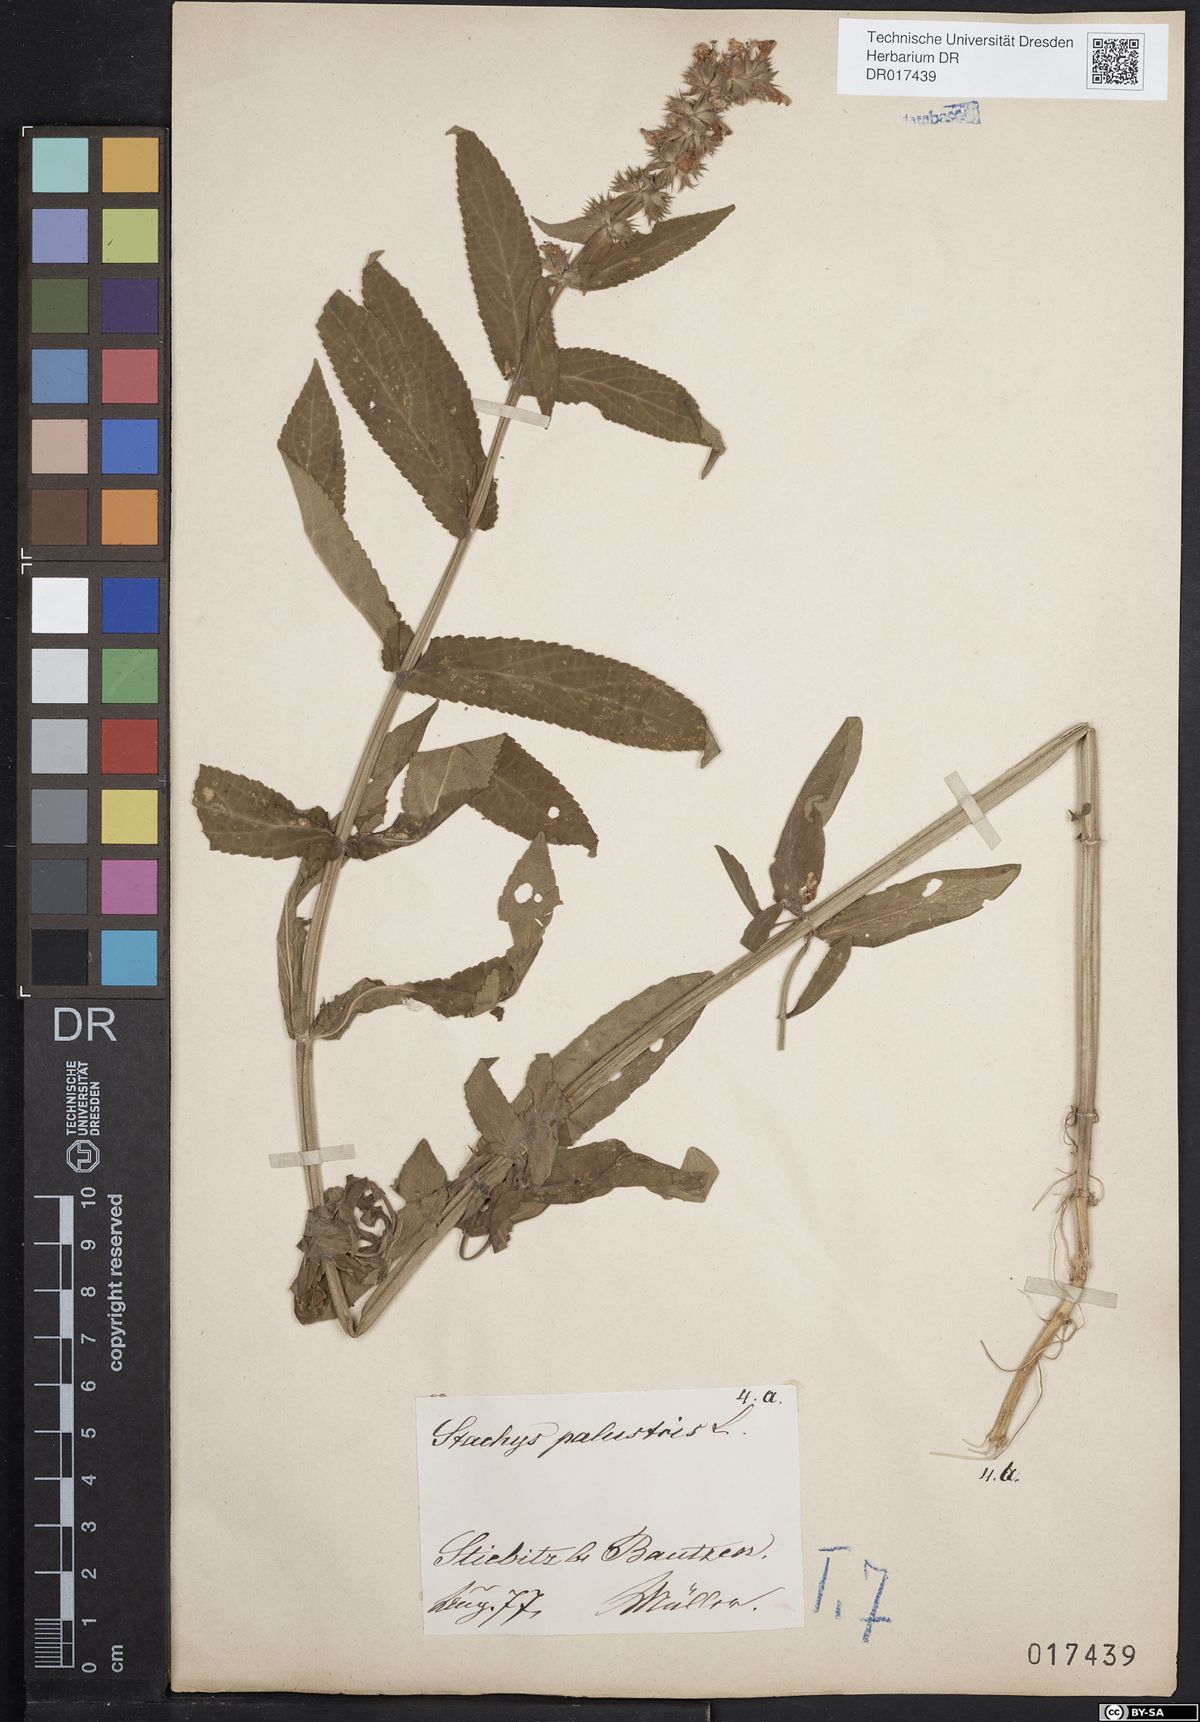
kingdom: Plantae
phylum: Tracheophyta
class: Magnoliopsida
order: Lamiales
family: Lamiaceae
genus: Stachys
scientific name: Stachys palustris
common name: Marsh woundwort
